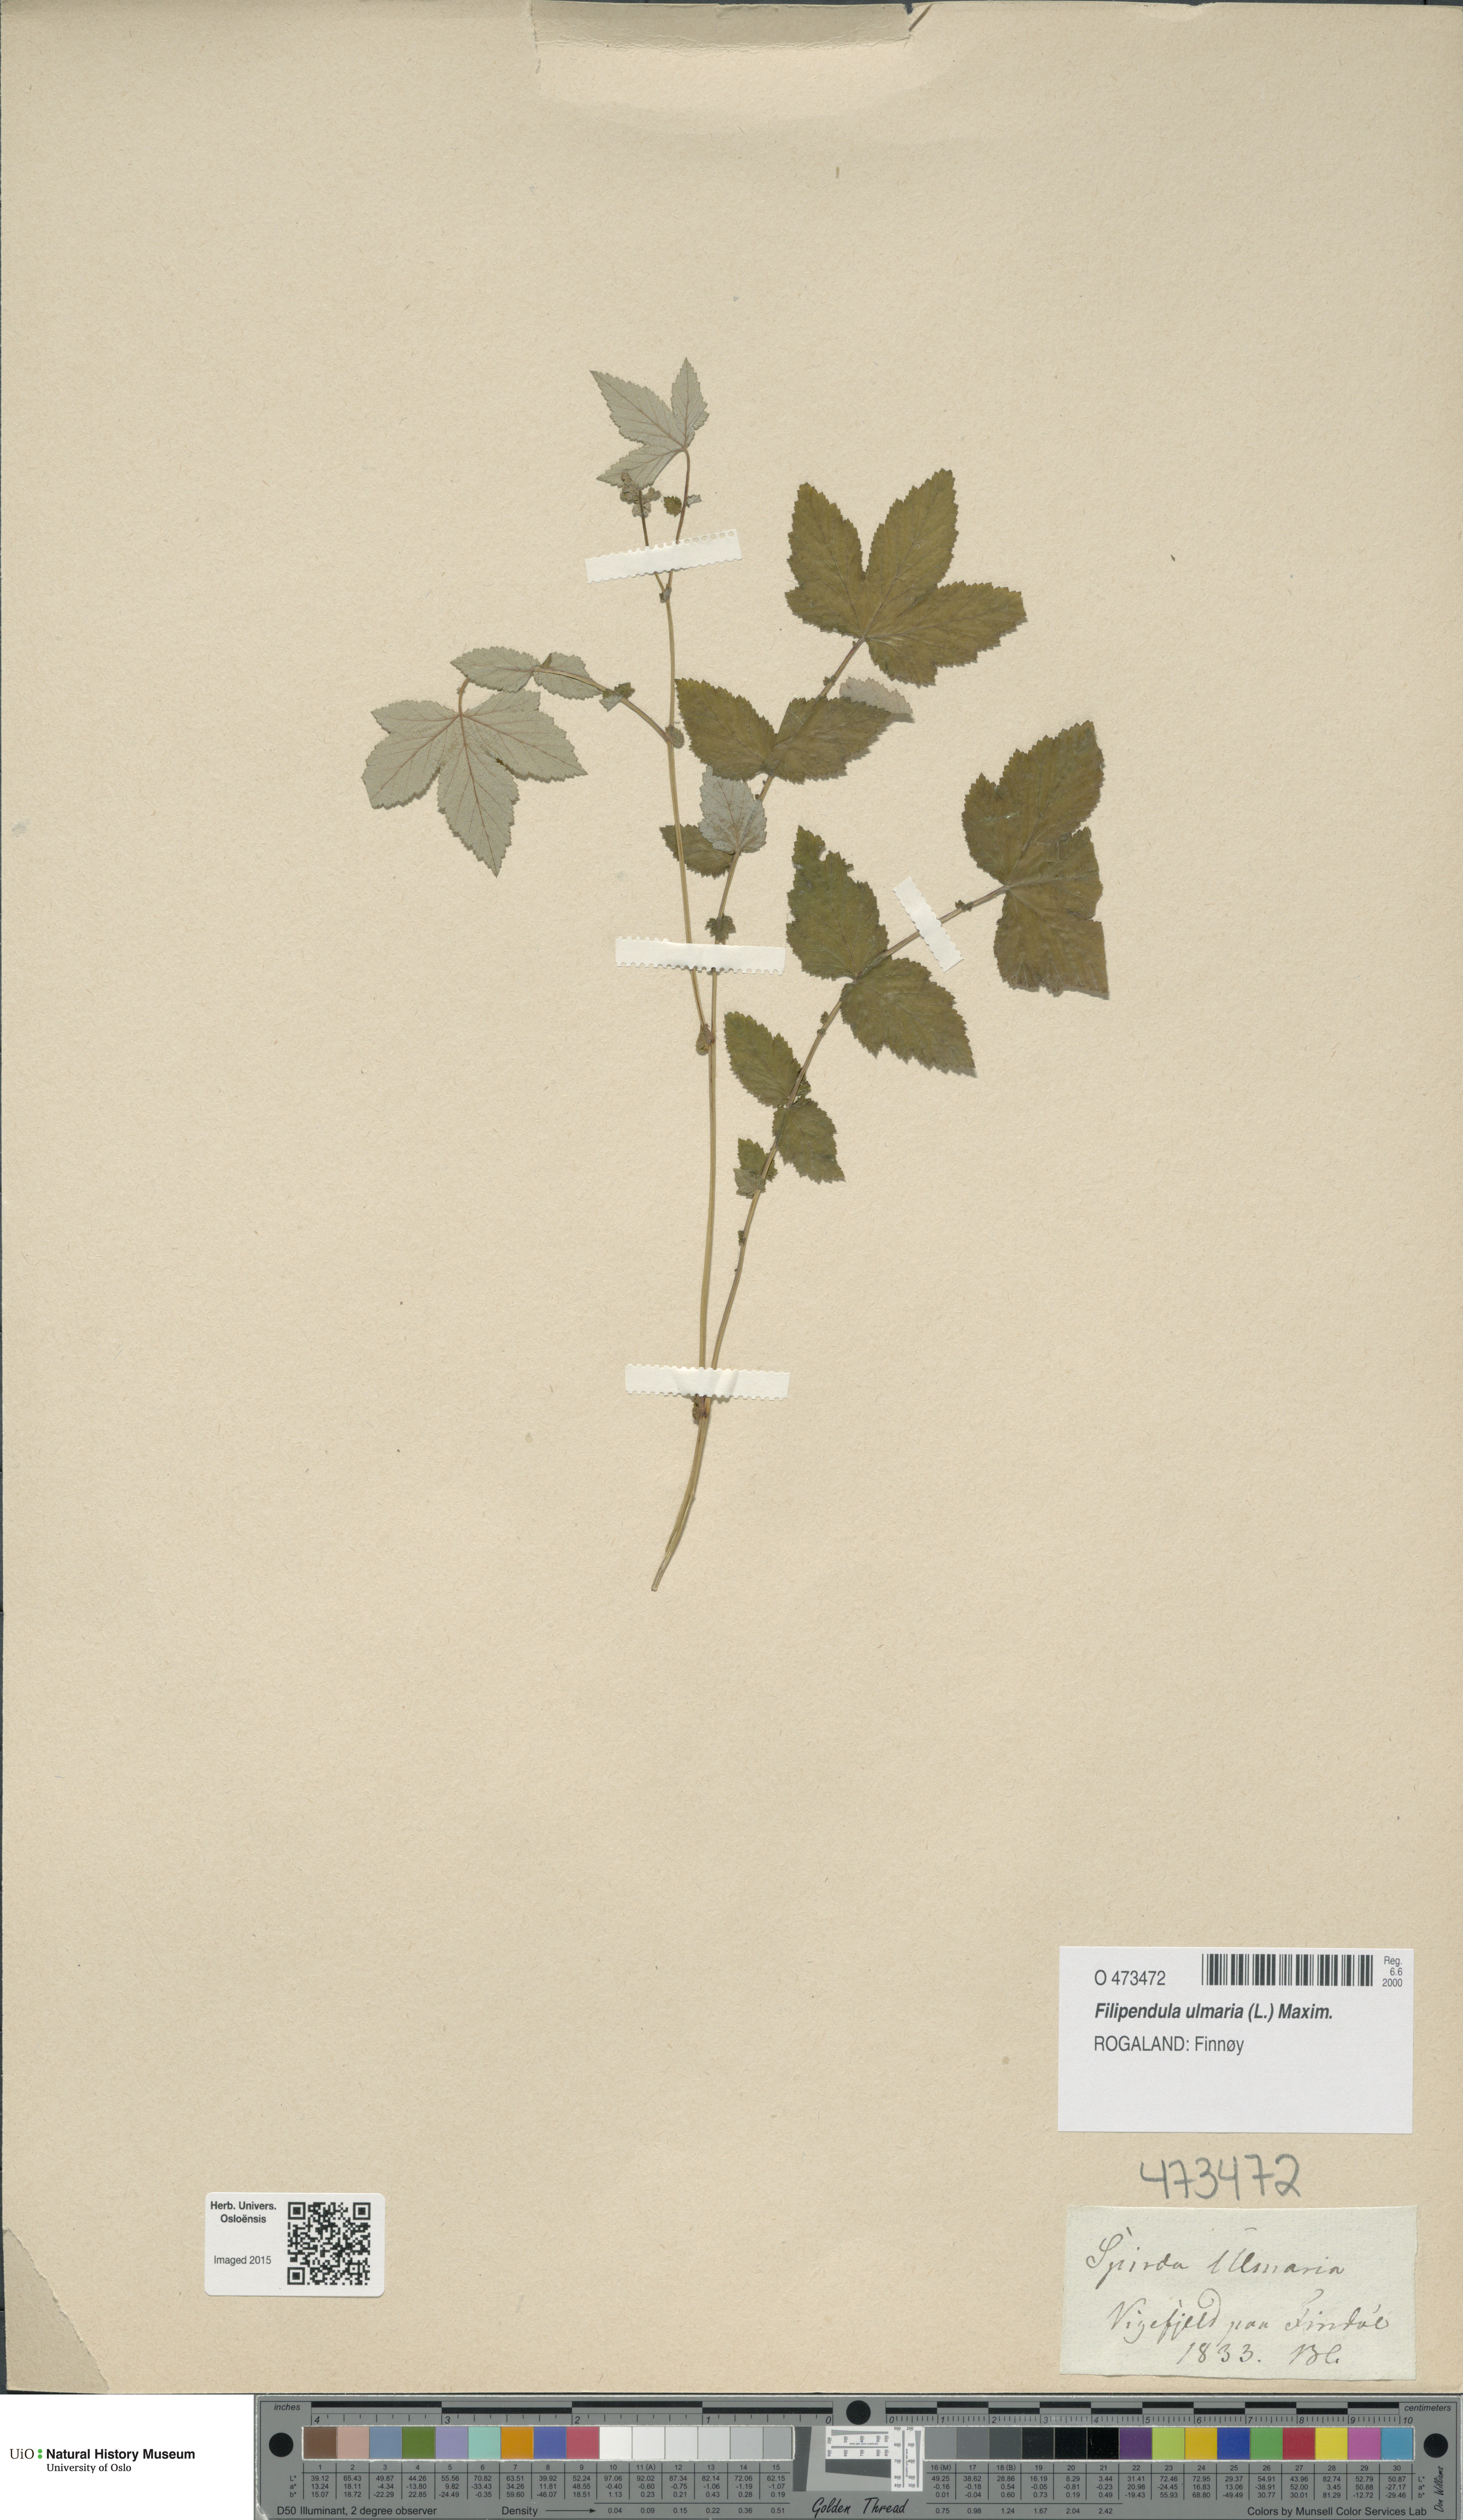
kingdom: Plantae
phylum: Tracheophyta
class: Magnoliopsida
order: Rosales
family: Rosaceae
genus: Filipendula
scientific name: Filipendula ulmaria
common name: Meadowsweet
